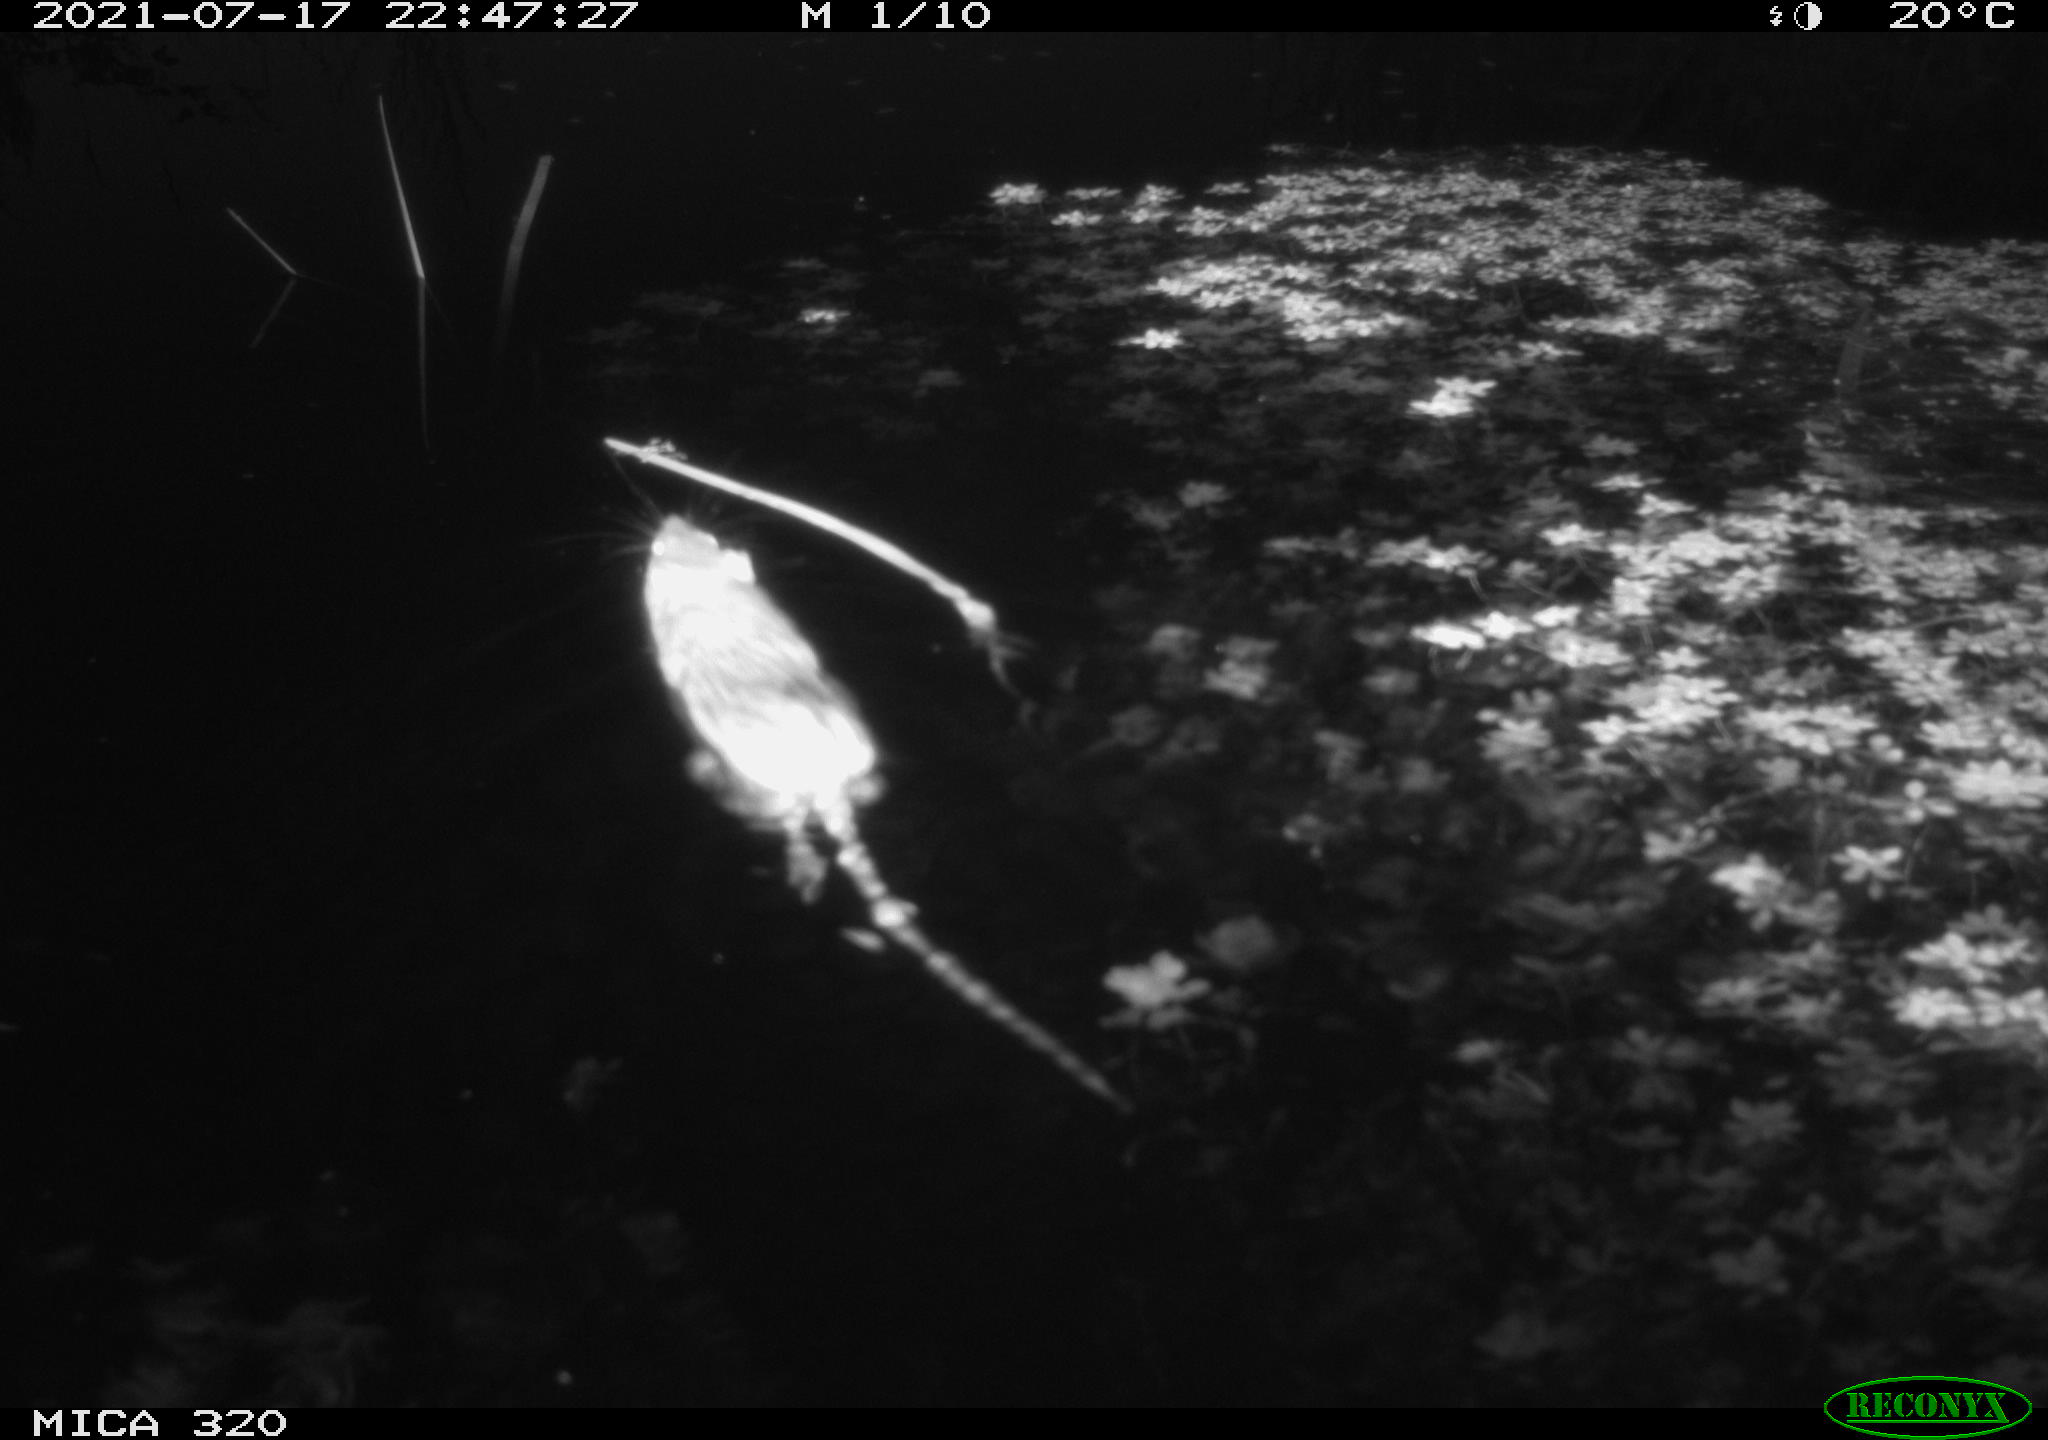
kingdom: Animalia
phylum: Chordata
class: Mammalia
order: Rodentia
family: Muridae
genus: Rattus
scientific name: Rattus norvegicus
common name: Brown rat
